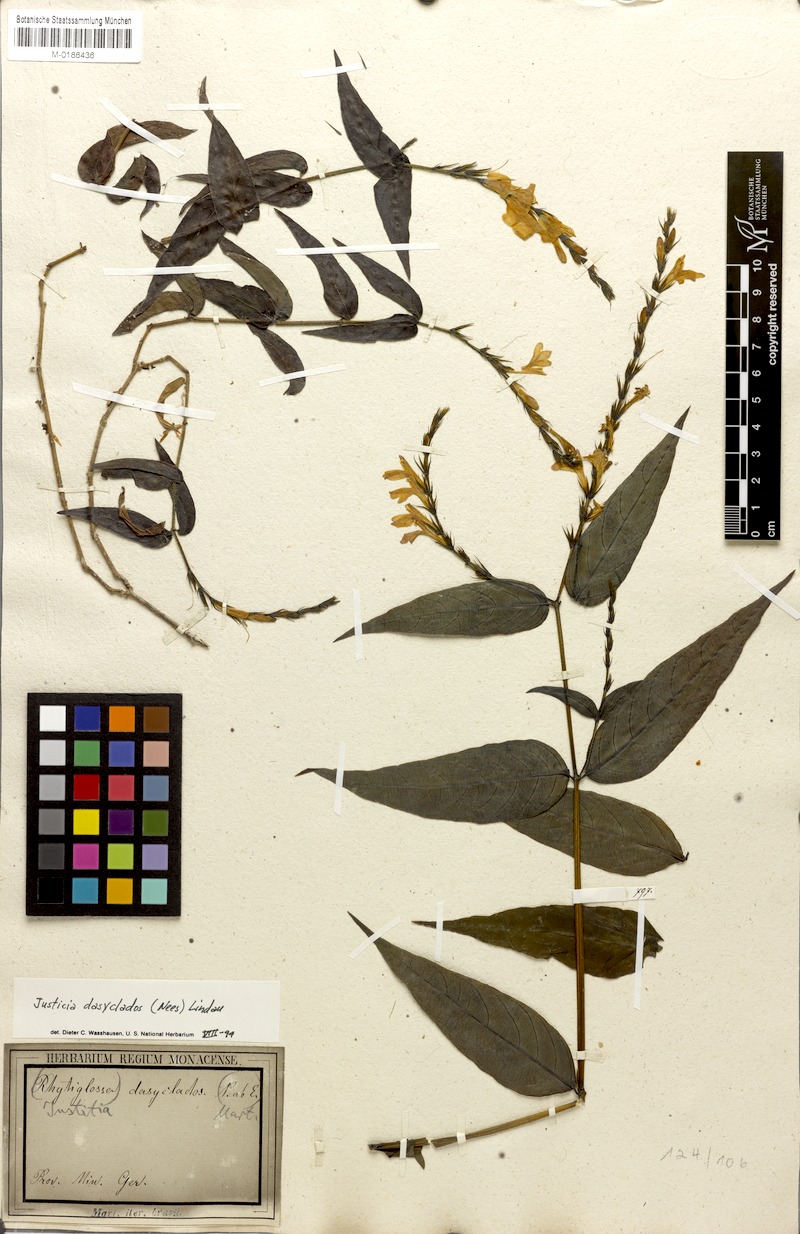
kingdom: Plantae
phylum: Tracheophyta
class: Magnoliopsida
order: Lamiales
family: Acanthaceae
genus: Dianthera
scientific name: Dianthera dasyclados
